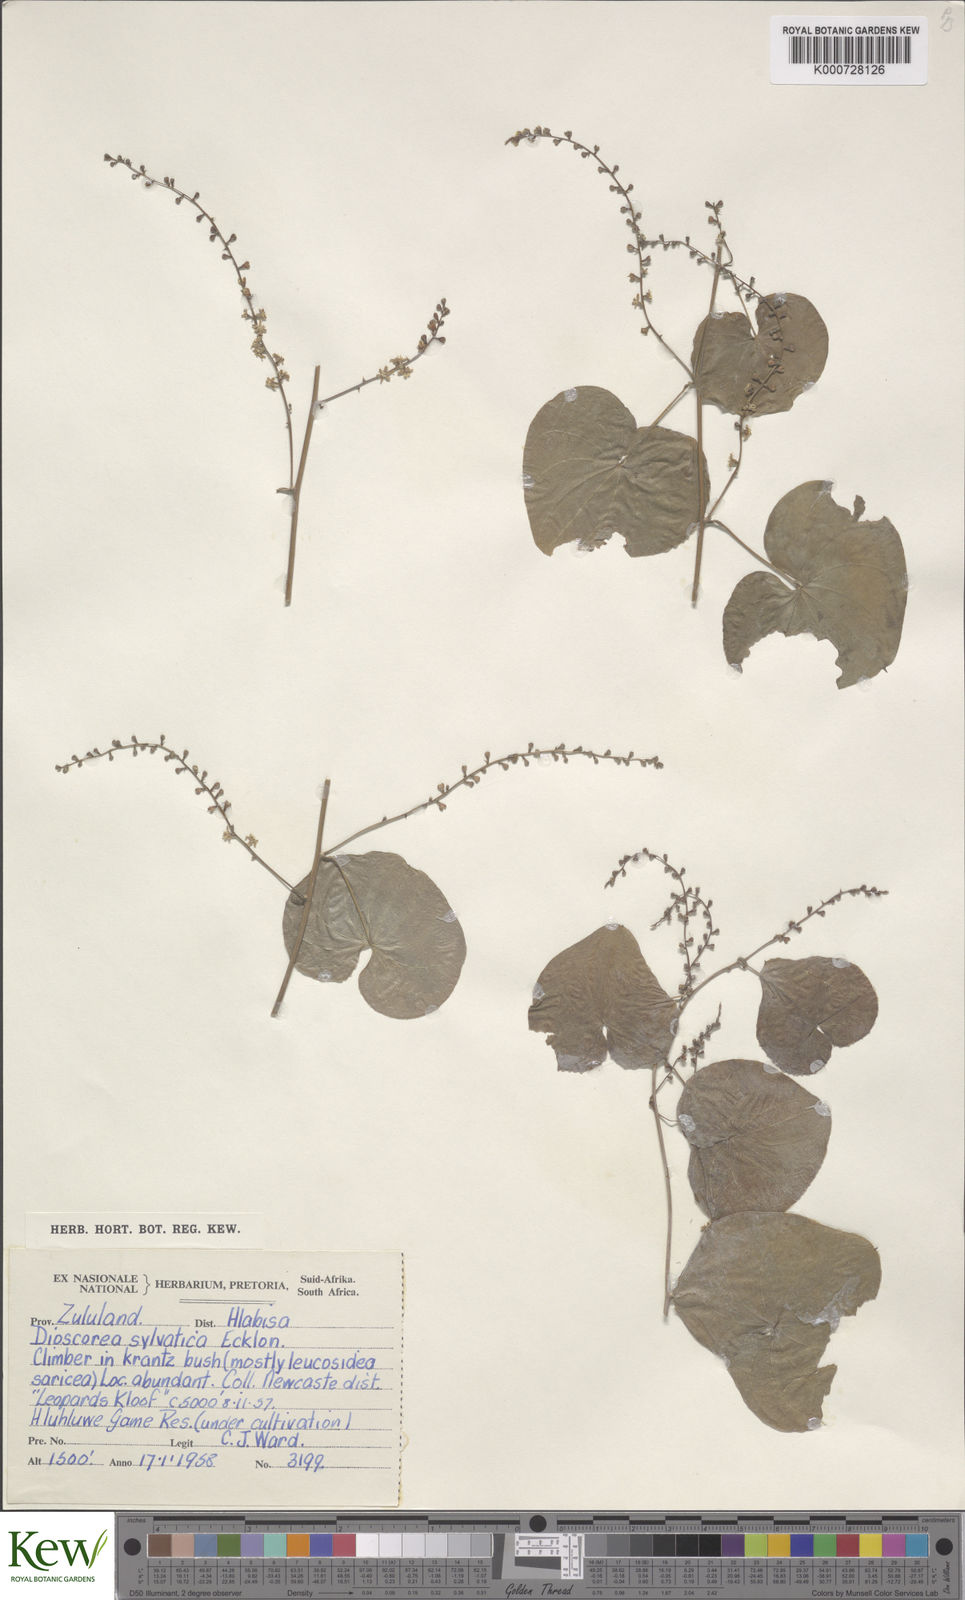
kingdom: Plantae
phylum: Tracheophyta
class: Liliopsida
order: Dioscoreales
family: Dioscoreaceae
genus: Dioscorea
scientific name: Dioscorea sylvatica
